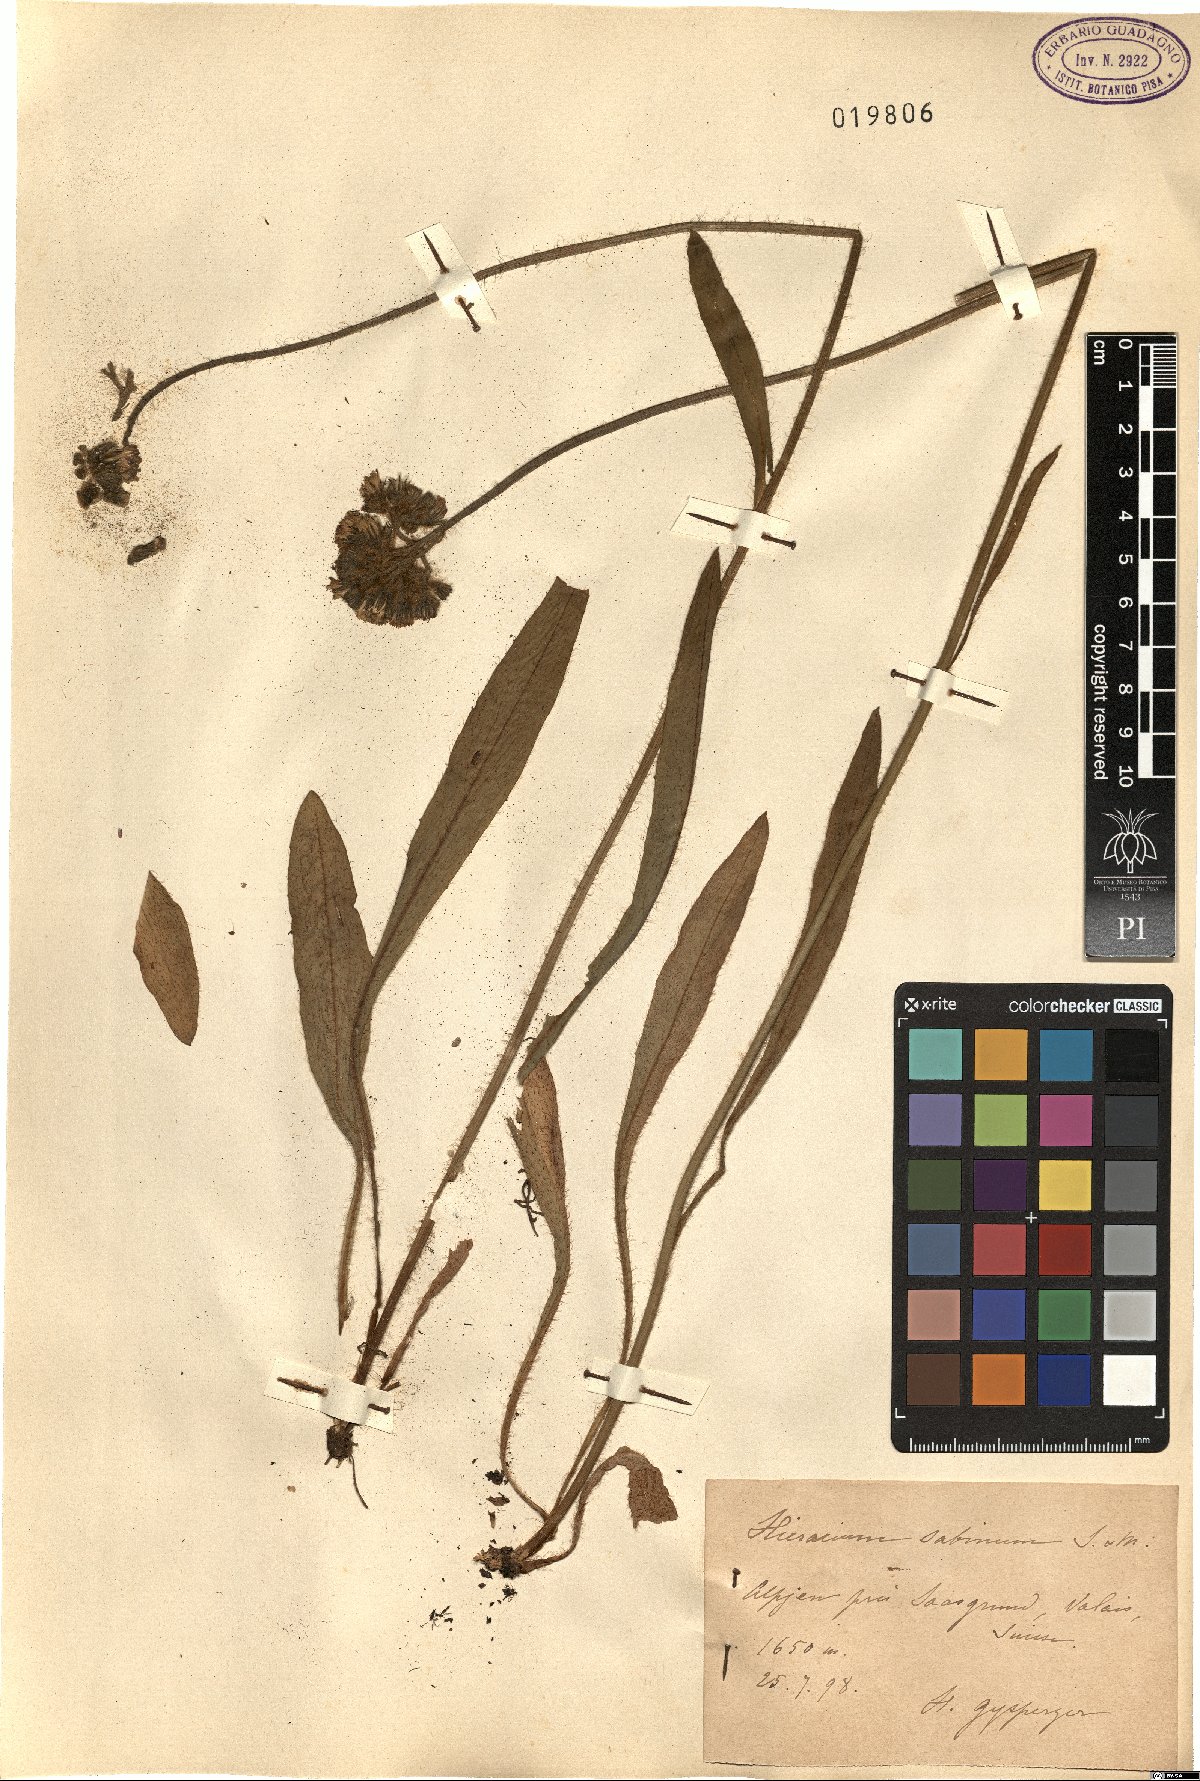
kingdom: Plantae
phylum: Tracheophyta
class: Magnoliopsida
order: Asterales
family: Asteraceae
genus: Pilosella
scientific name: Pilosella cymosa
